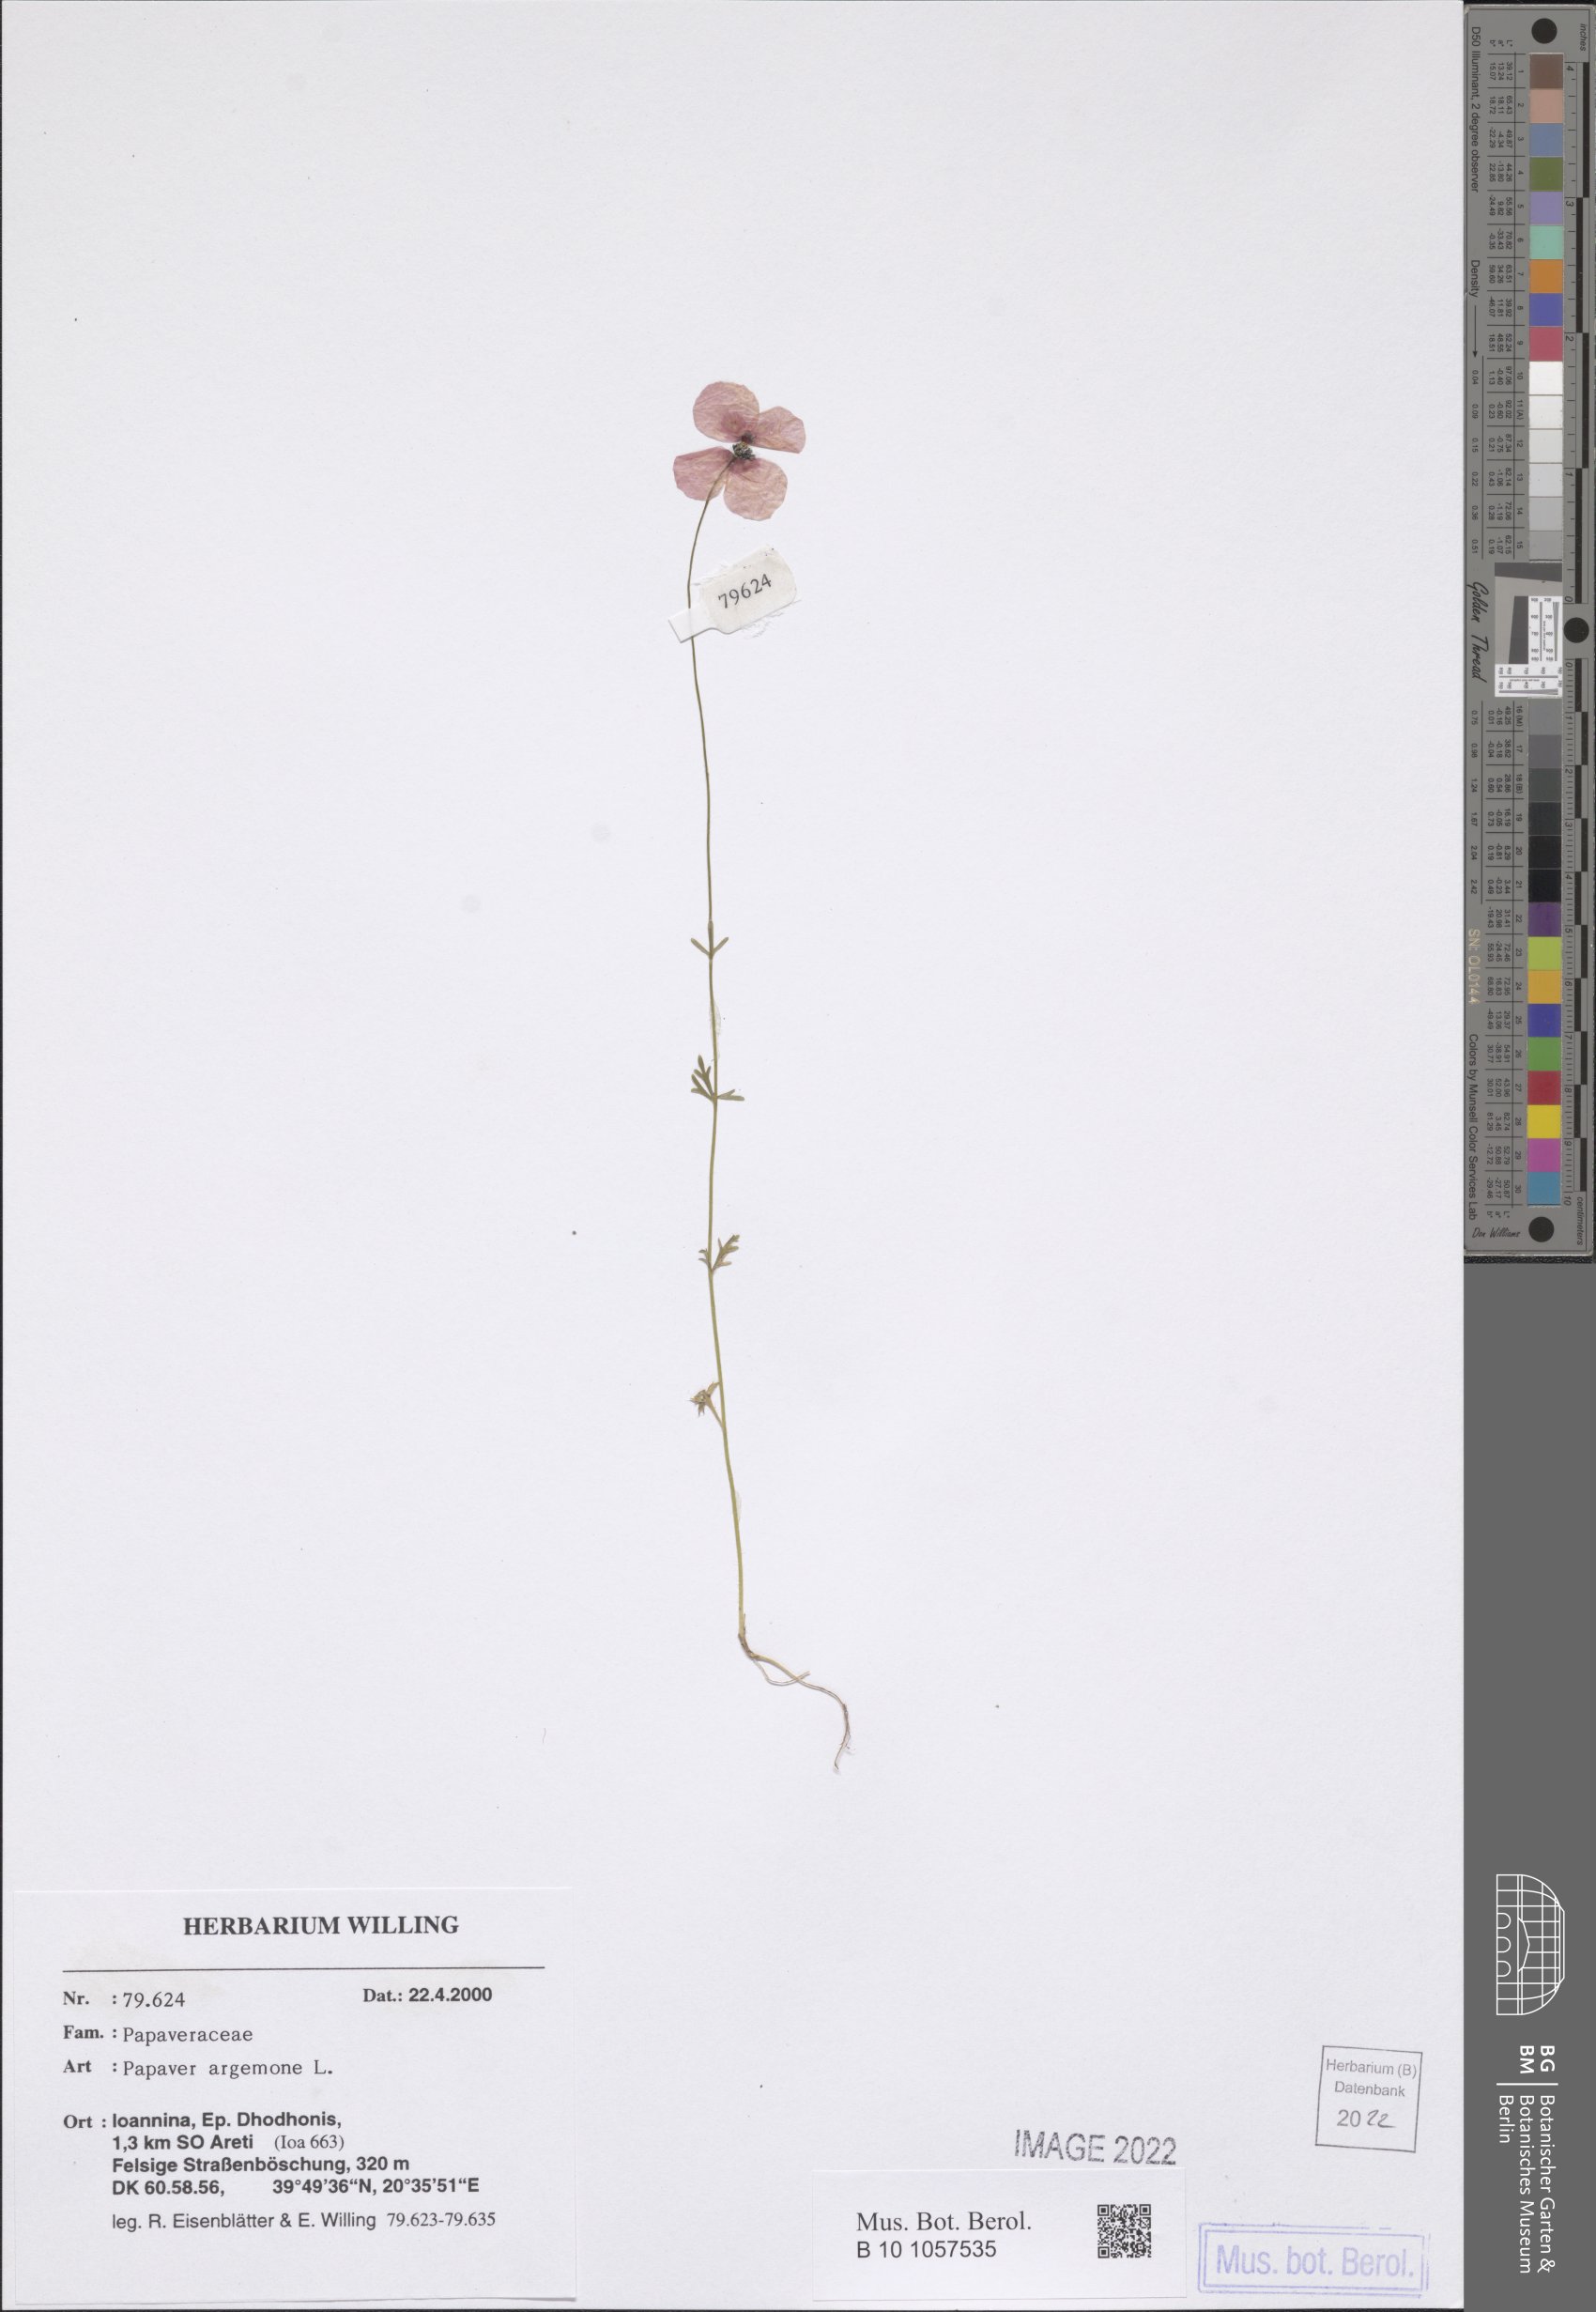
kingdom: Plantae
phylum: Tracheophyta
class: Magnoliopsida
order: Ranunculales
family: Papaveraceae
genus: Roemeria
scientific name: Roemeria argemone
